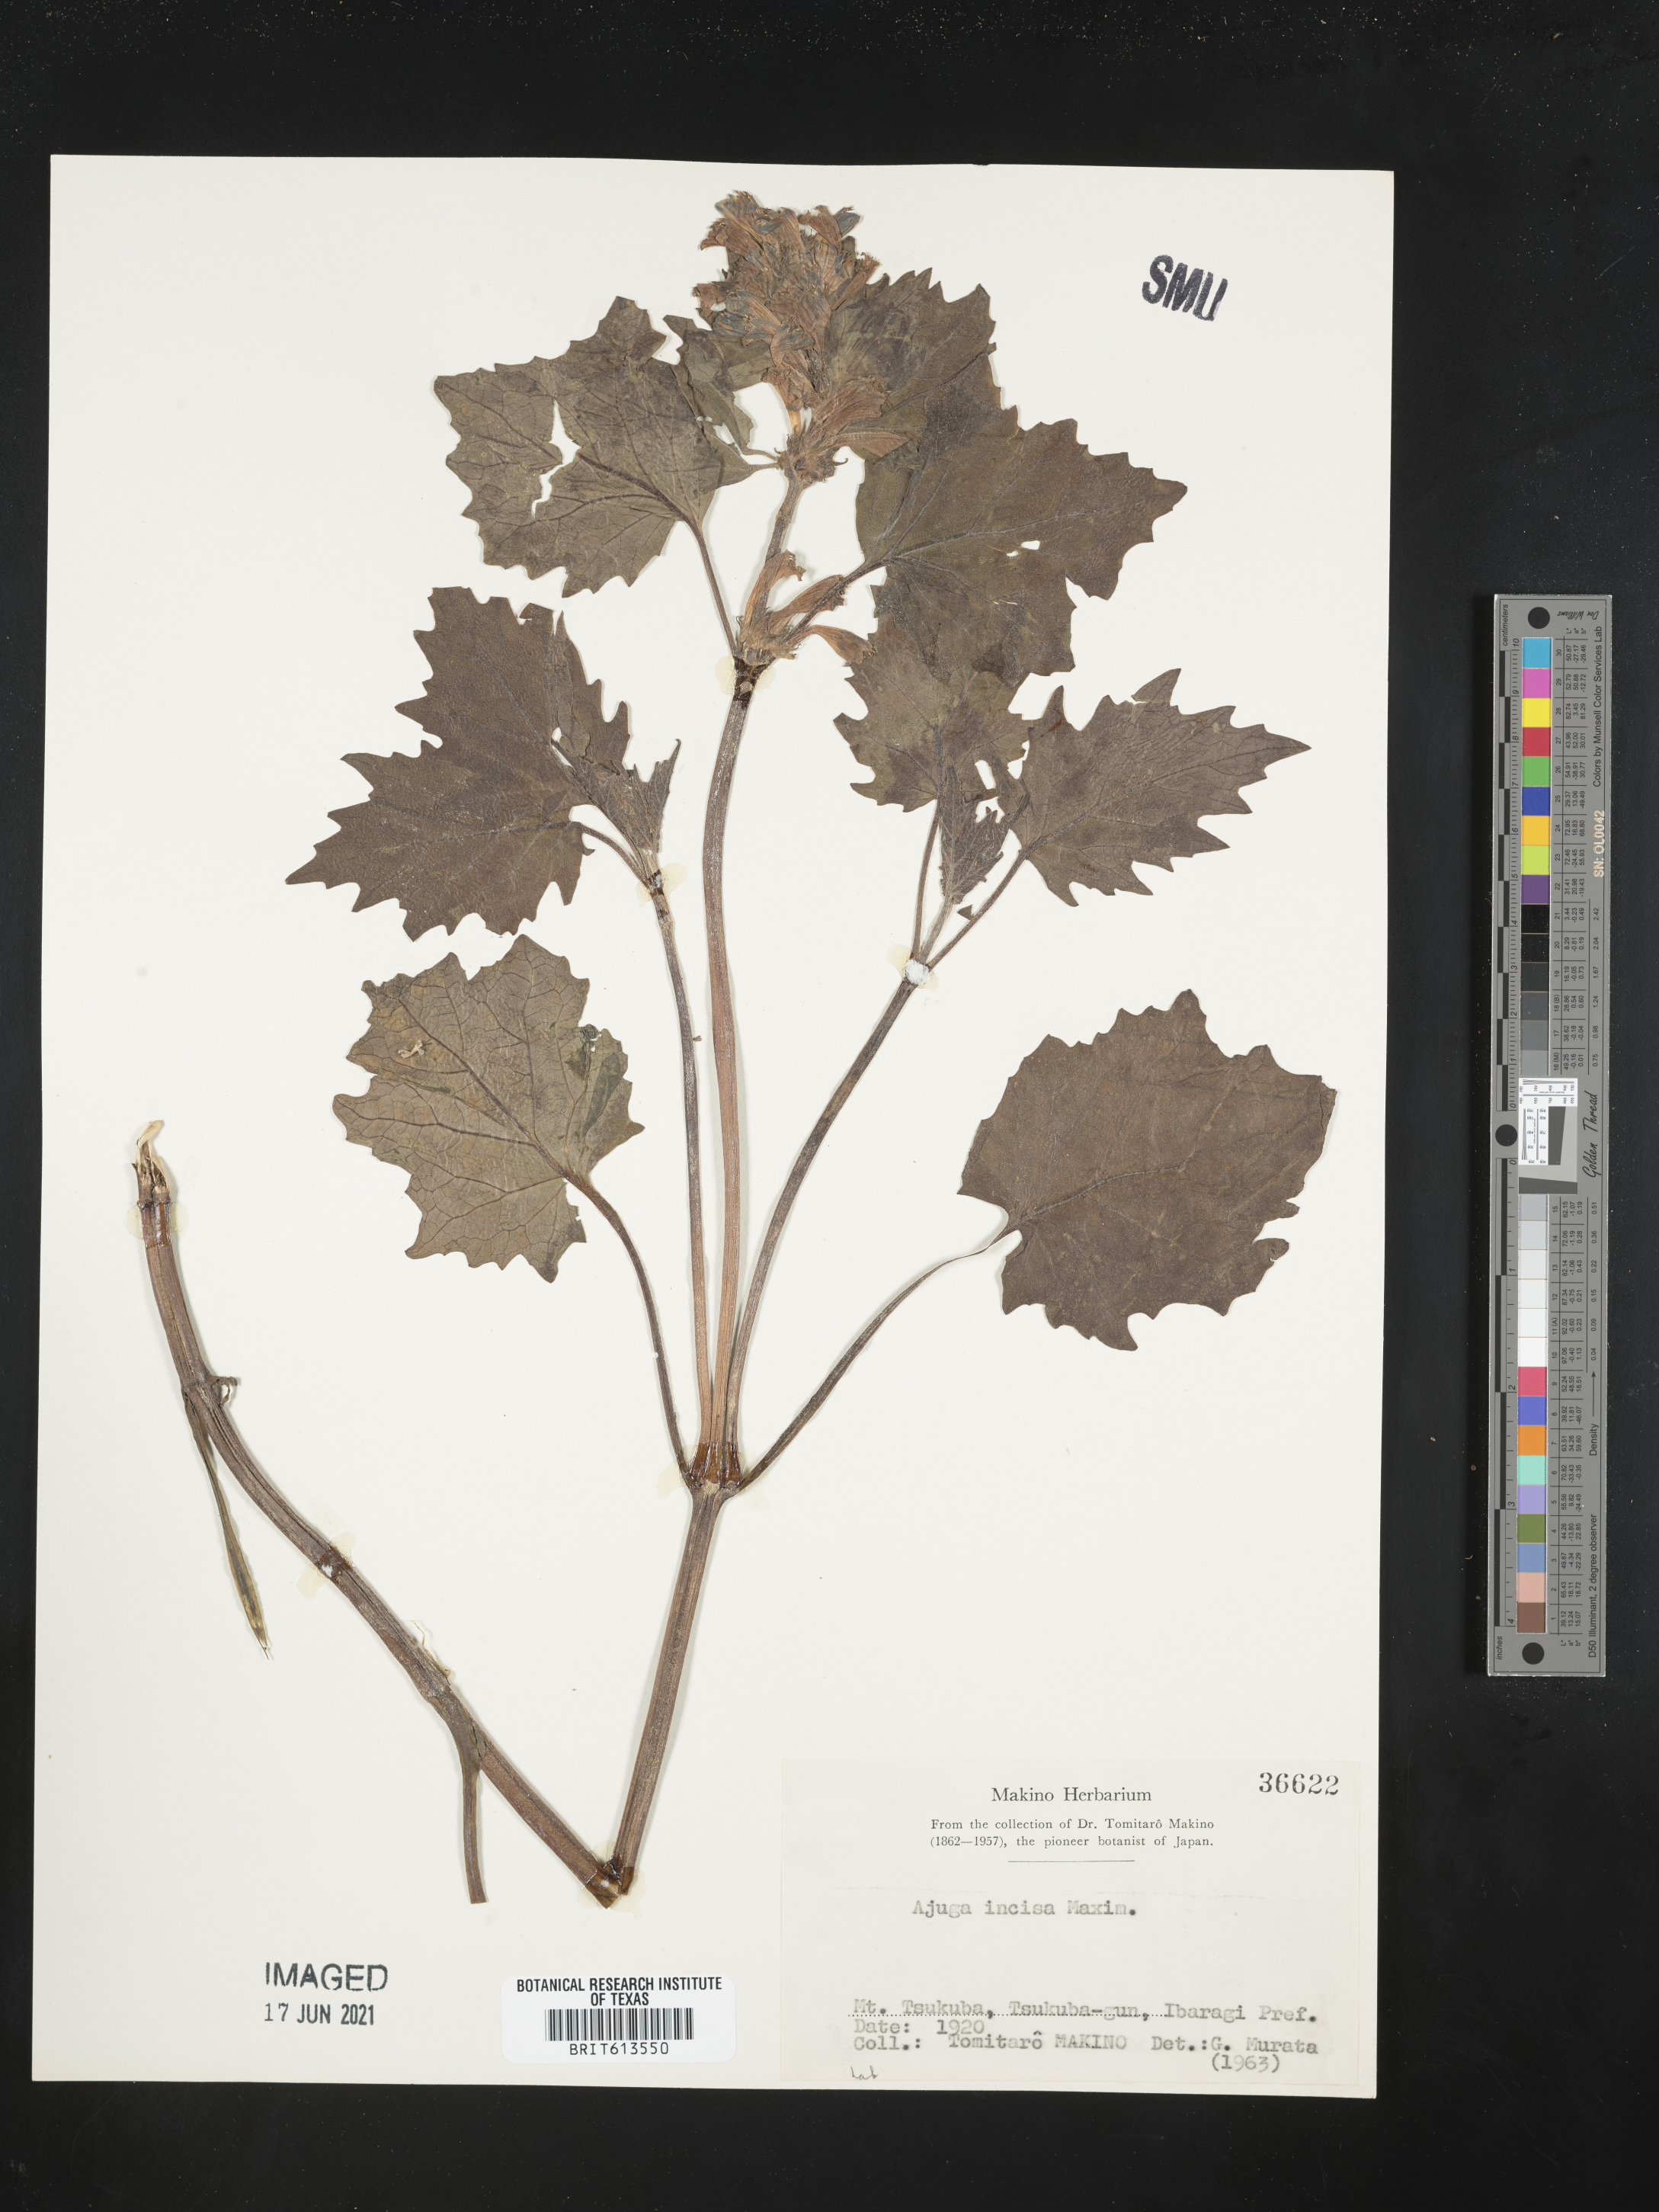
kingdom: Plantae
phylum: Tracheophyta
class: Magnoliopsida
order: Lamiales
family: Lamiaceae
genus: Ajuga
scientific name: Ajuga incisa
